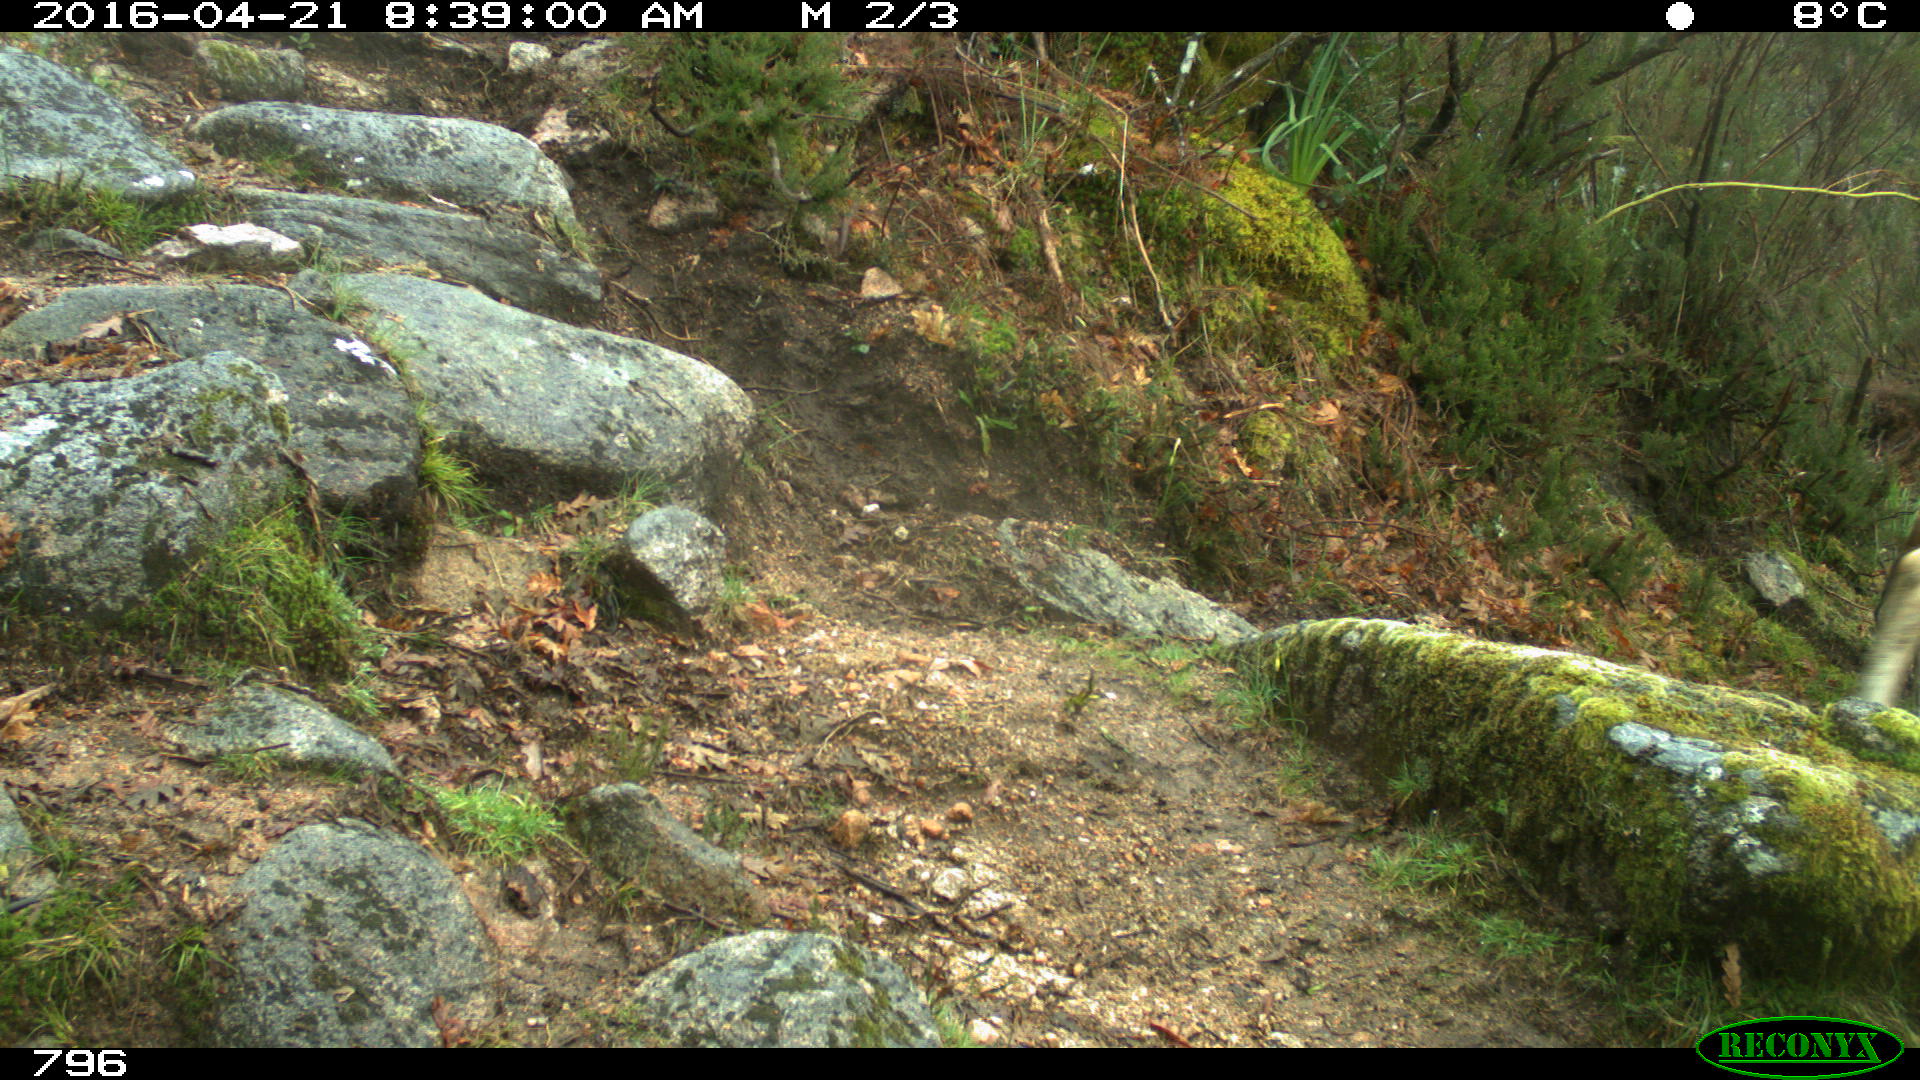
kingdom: Animalia
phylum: Chordata
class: Mammalia
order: Artiodactyla
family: Bovidae
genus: Bos
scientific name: Bos taurus
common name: Domesticated cattle
